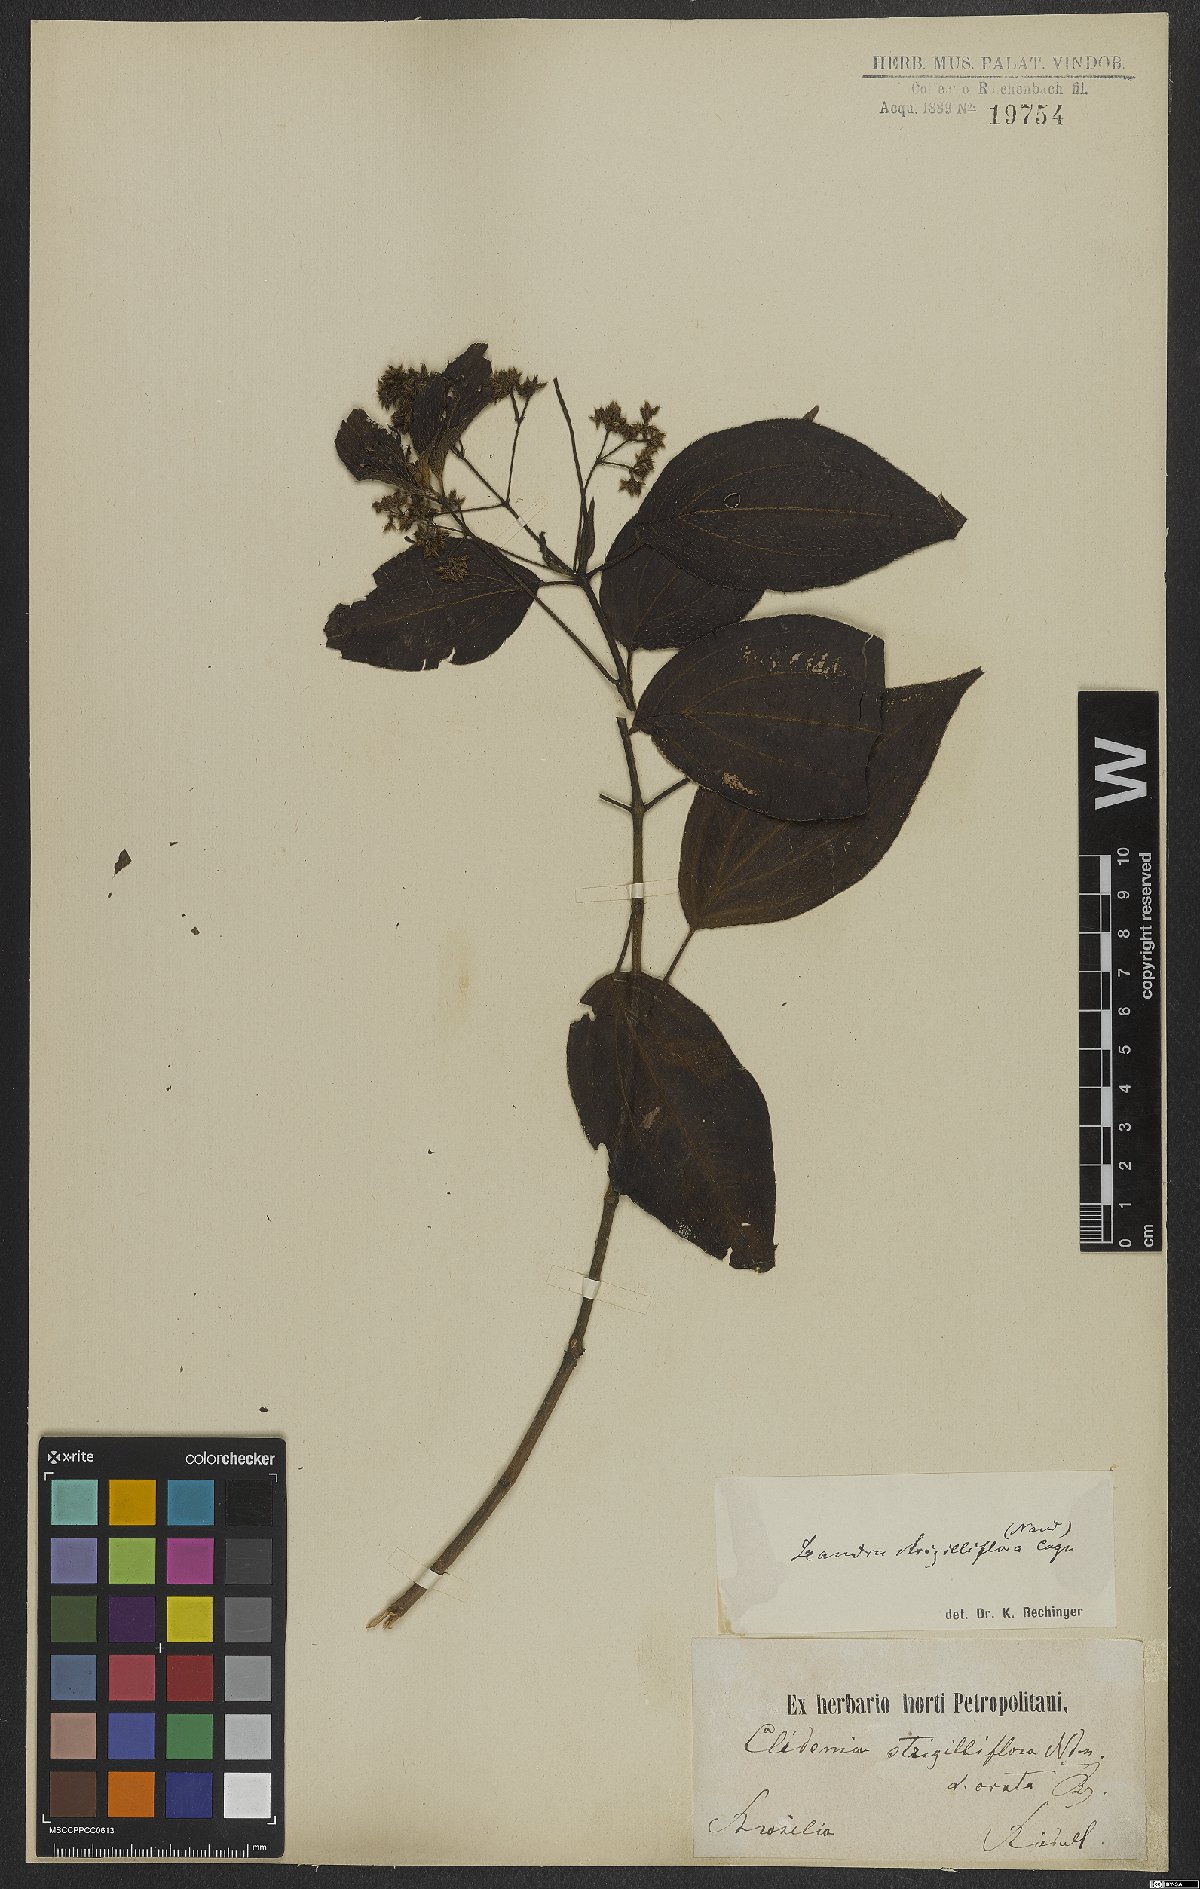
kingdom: Plantae
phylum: Tracheophyta
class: Magnoliopsida
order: Myrtales
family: Melastomataceae
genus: Miconia
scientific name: Miconia strigilliflora
